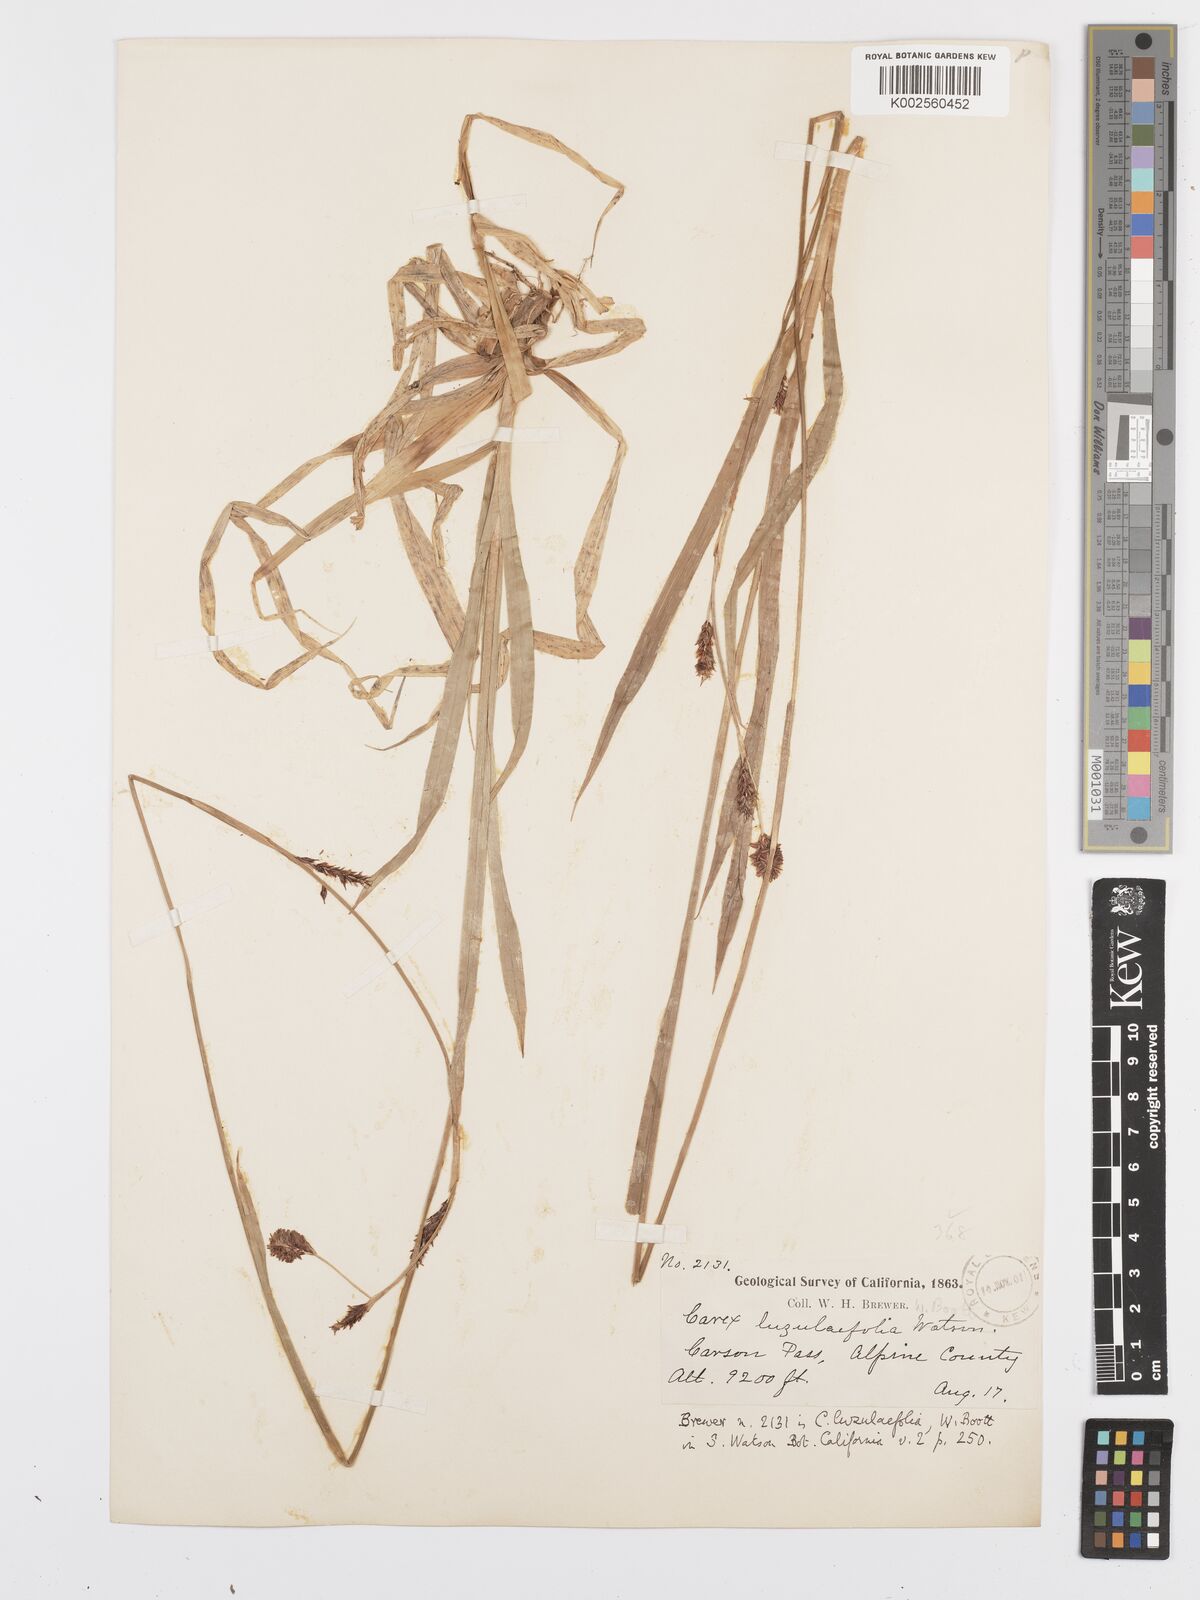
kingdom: Plantae
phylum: Tracheophyta
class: Liliopsida
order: Poales
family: Cyperaceae
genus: Carex
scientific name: Carex luzulifolia
